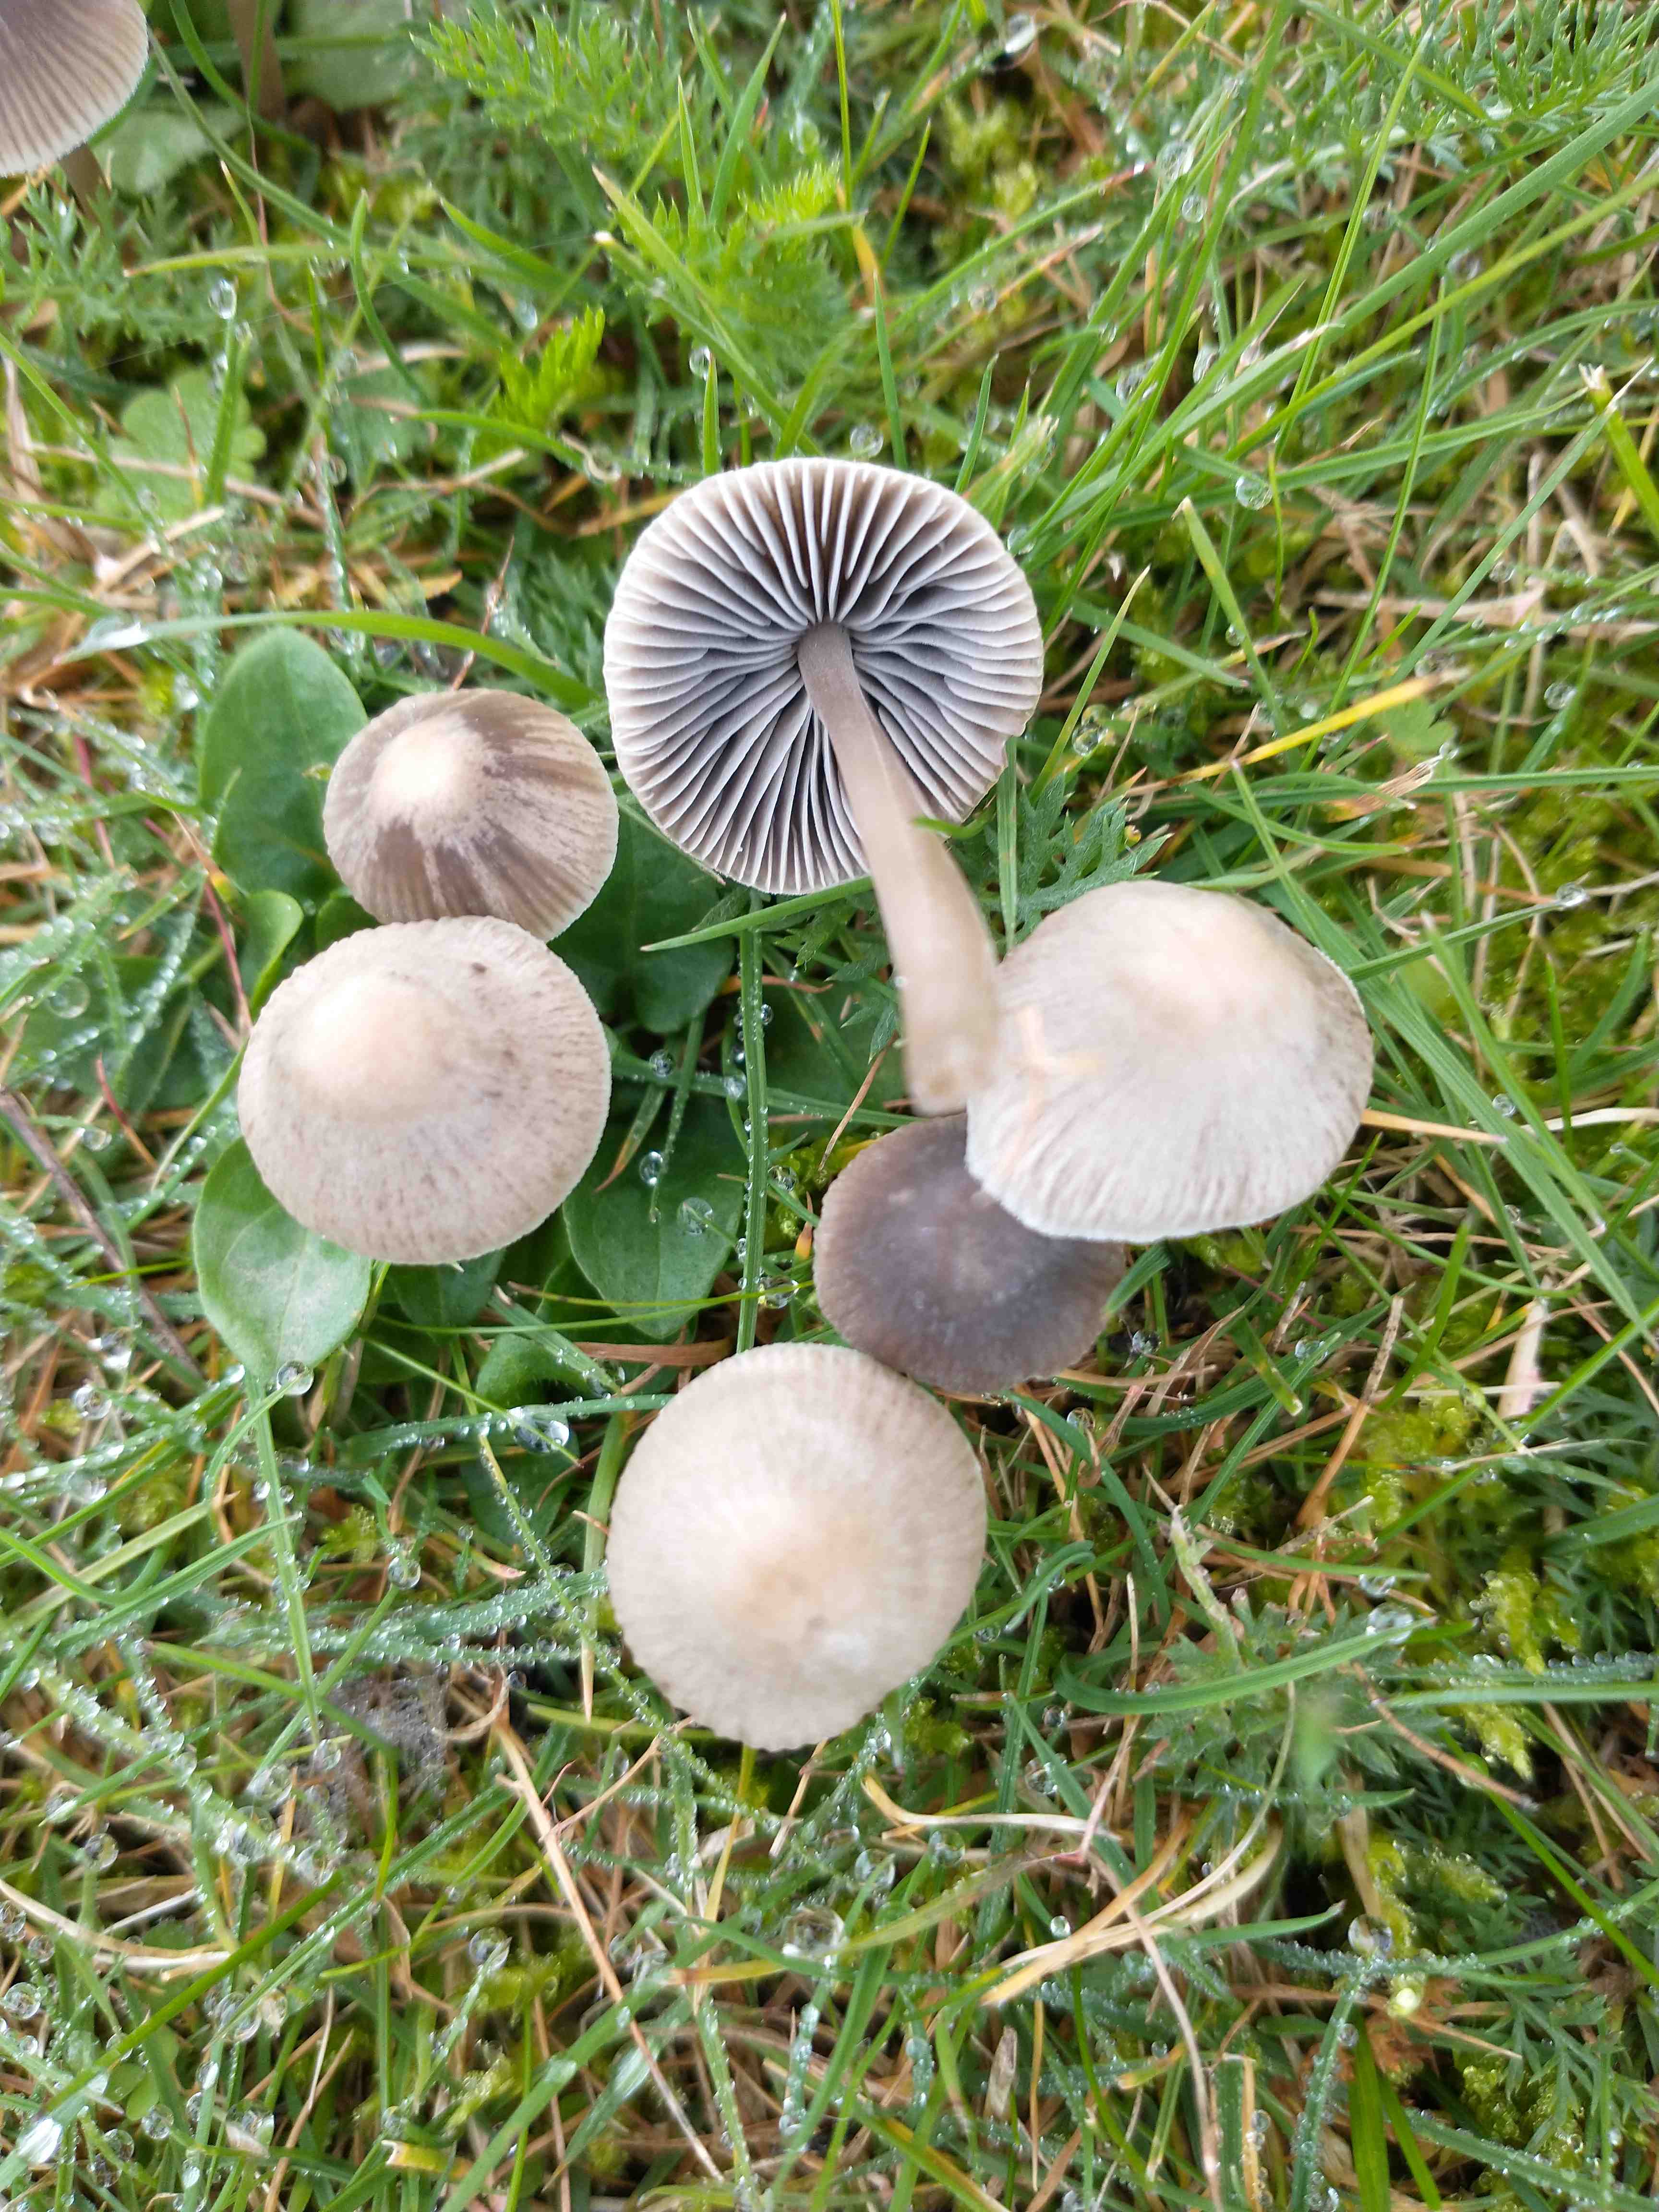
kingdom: Fungi
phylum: Basidiomycota
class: Agaricomycetes
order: Agaricales
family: Mycenaceae
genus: Mycena
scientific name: Mycena aetites
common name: plæne-huesvamp
